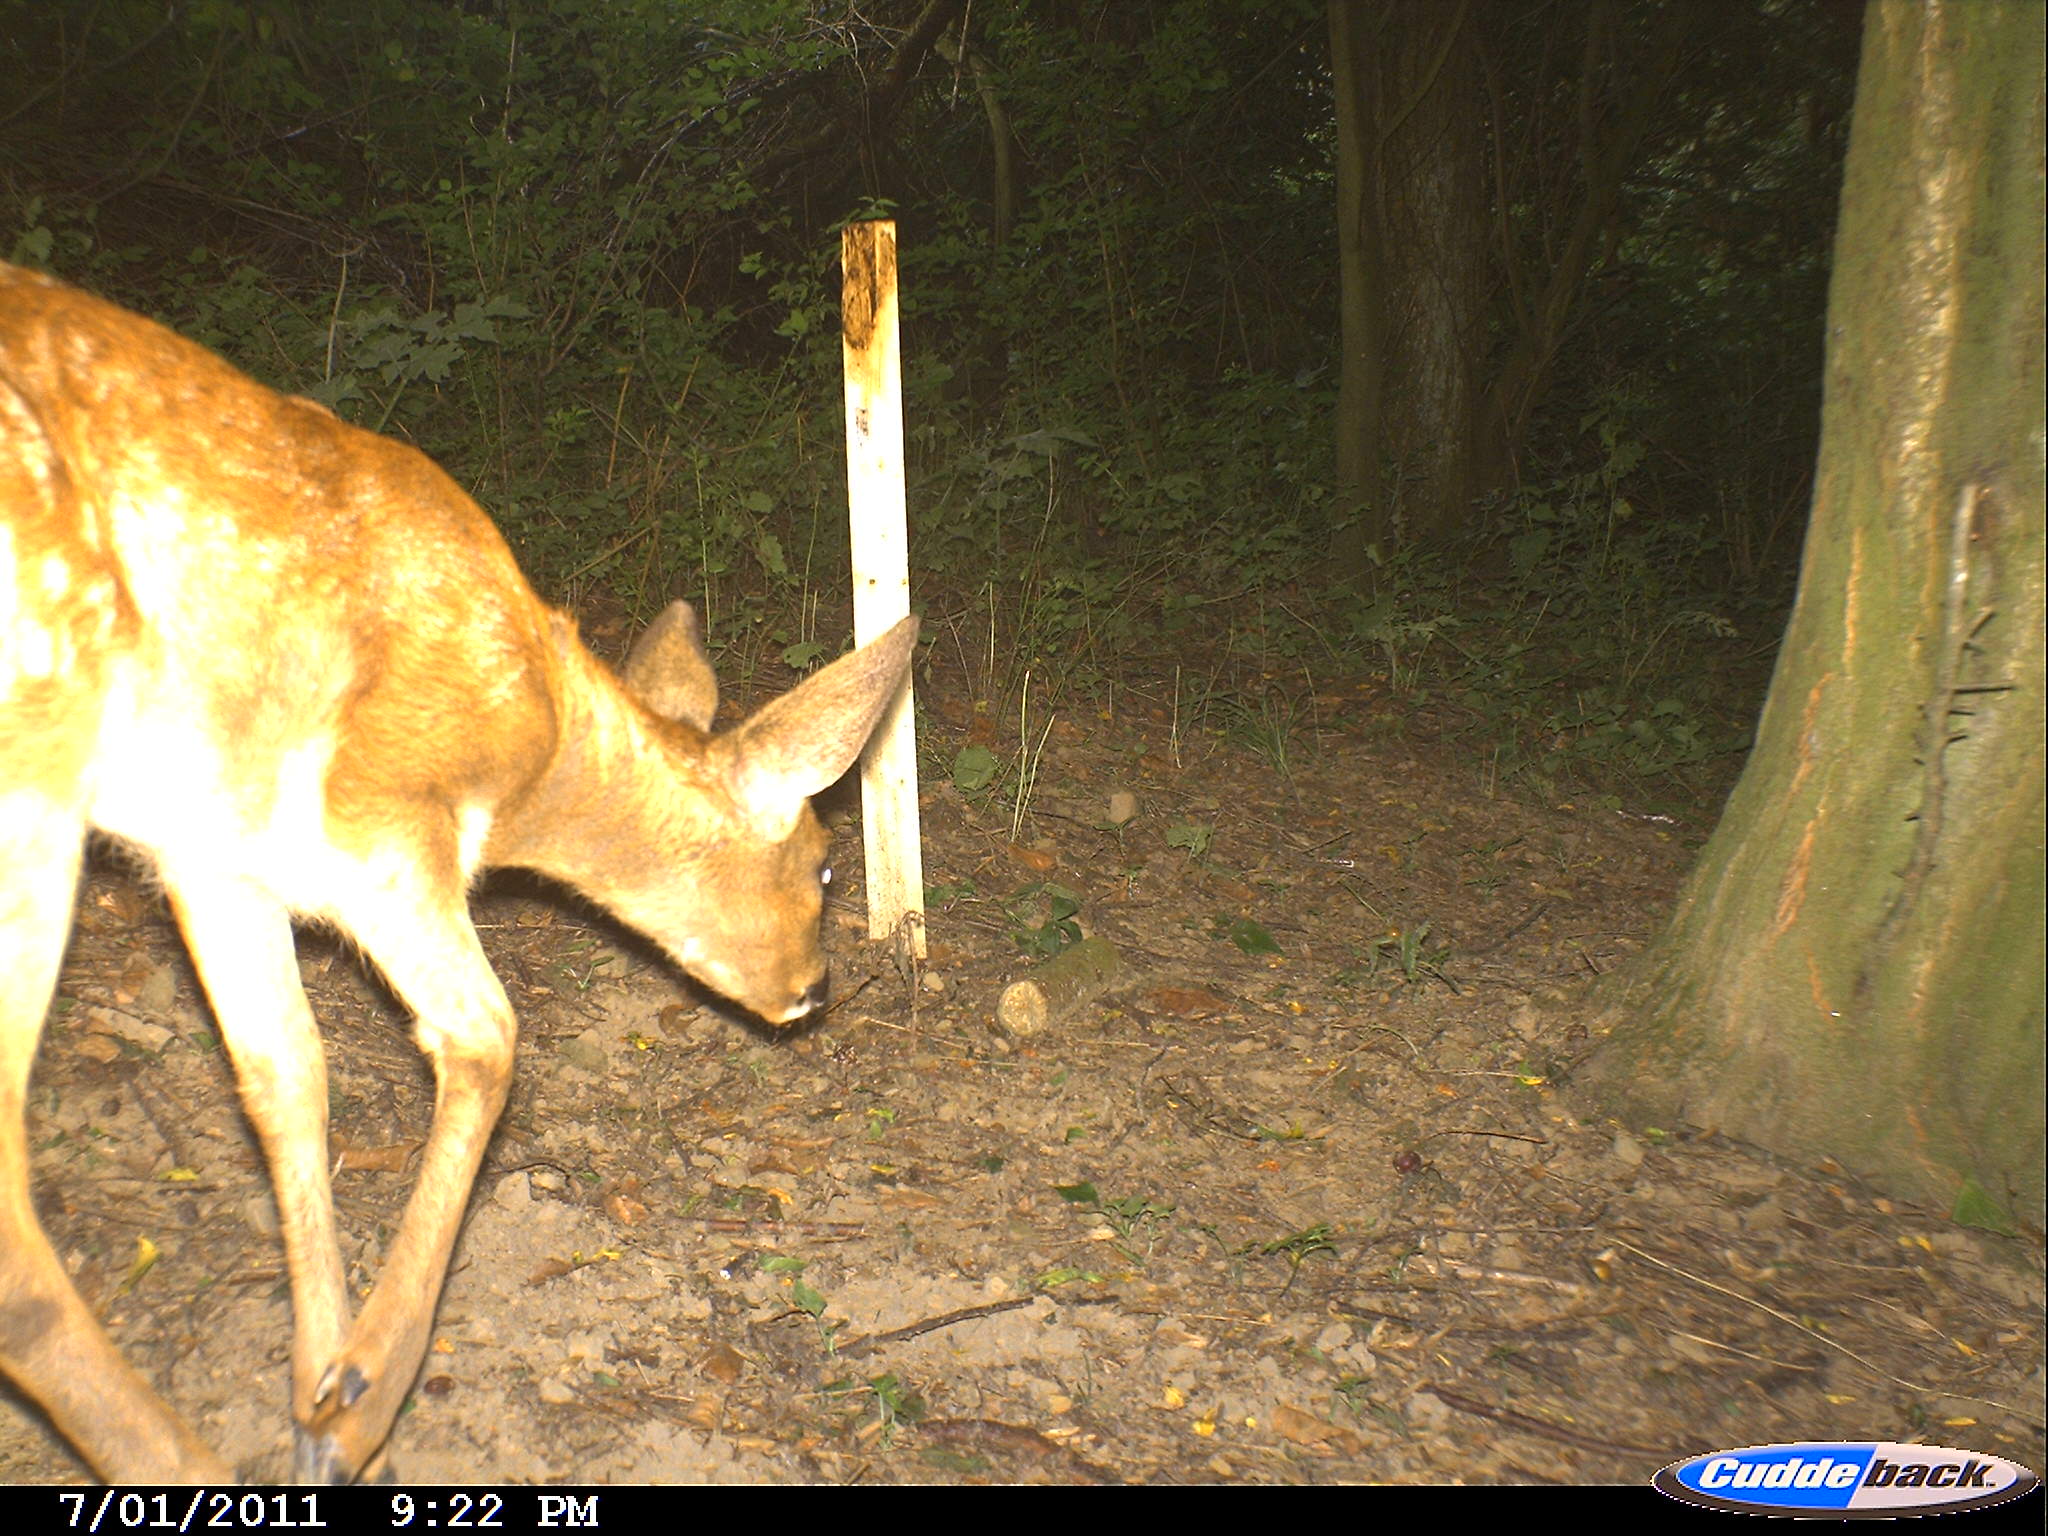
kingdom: Animalia
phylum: Chordata
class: Mammalia
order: Artiodactyla
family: Cervidae
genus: Capreolus
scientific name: Capreolus capreolus
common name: Western roe deer
